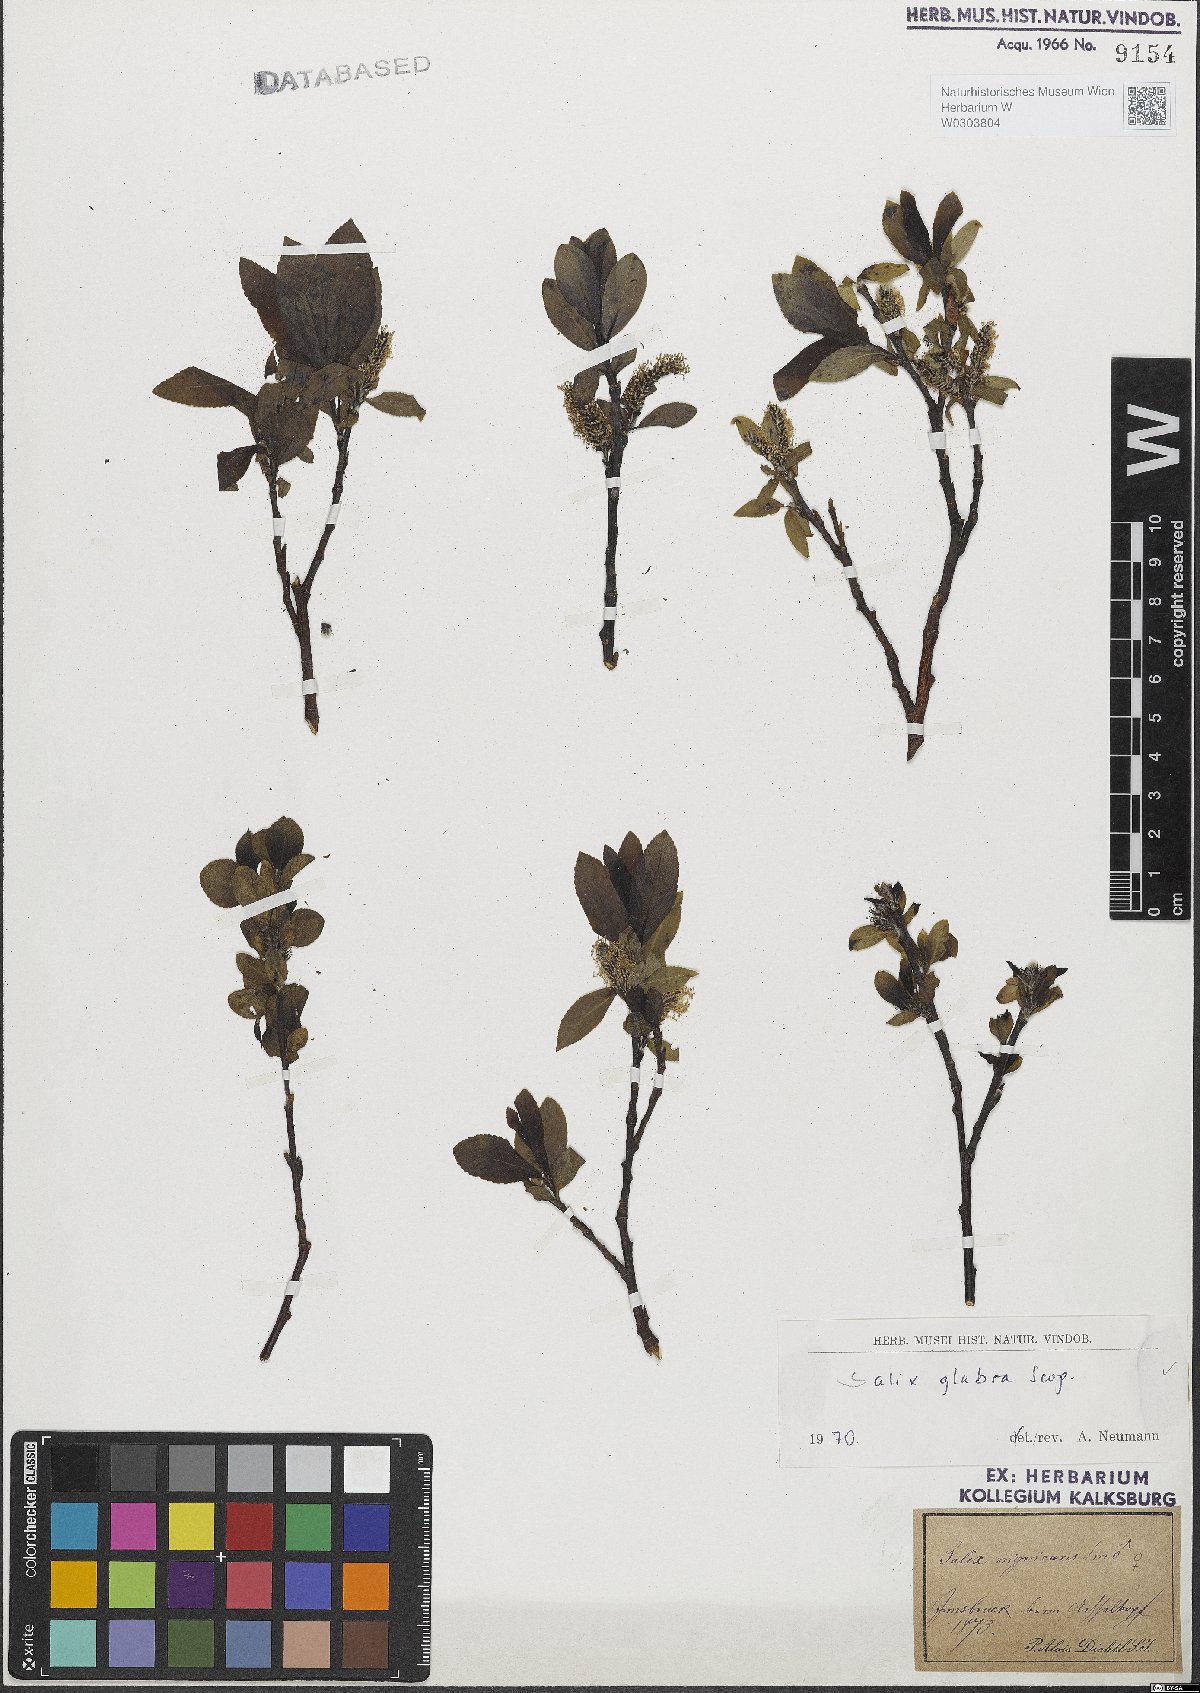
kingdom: Plantae
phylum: Tracheophyta
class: Magnoliopsida
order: Malpighiales
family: Salicaceae
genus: Salix
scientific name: Salix glabra
